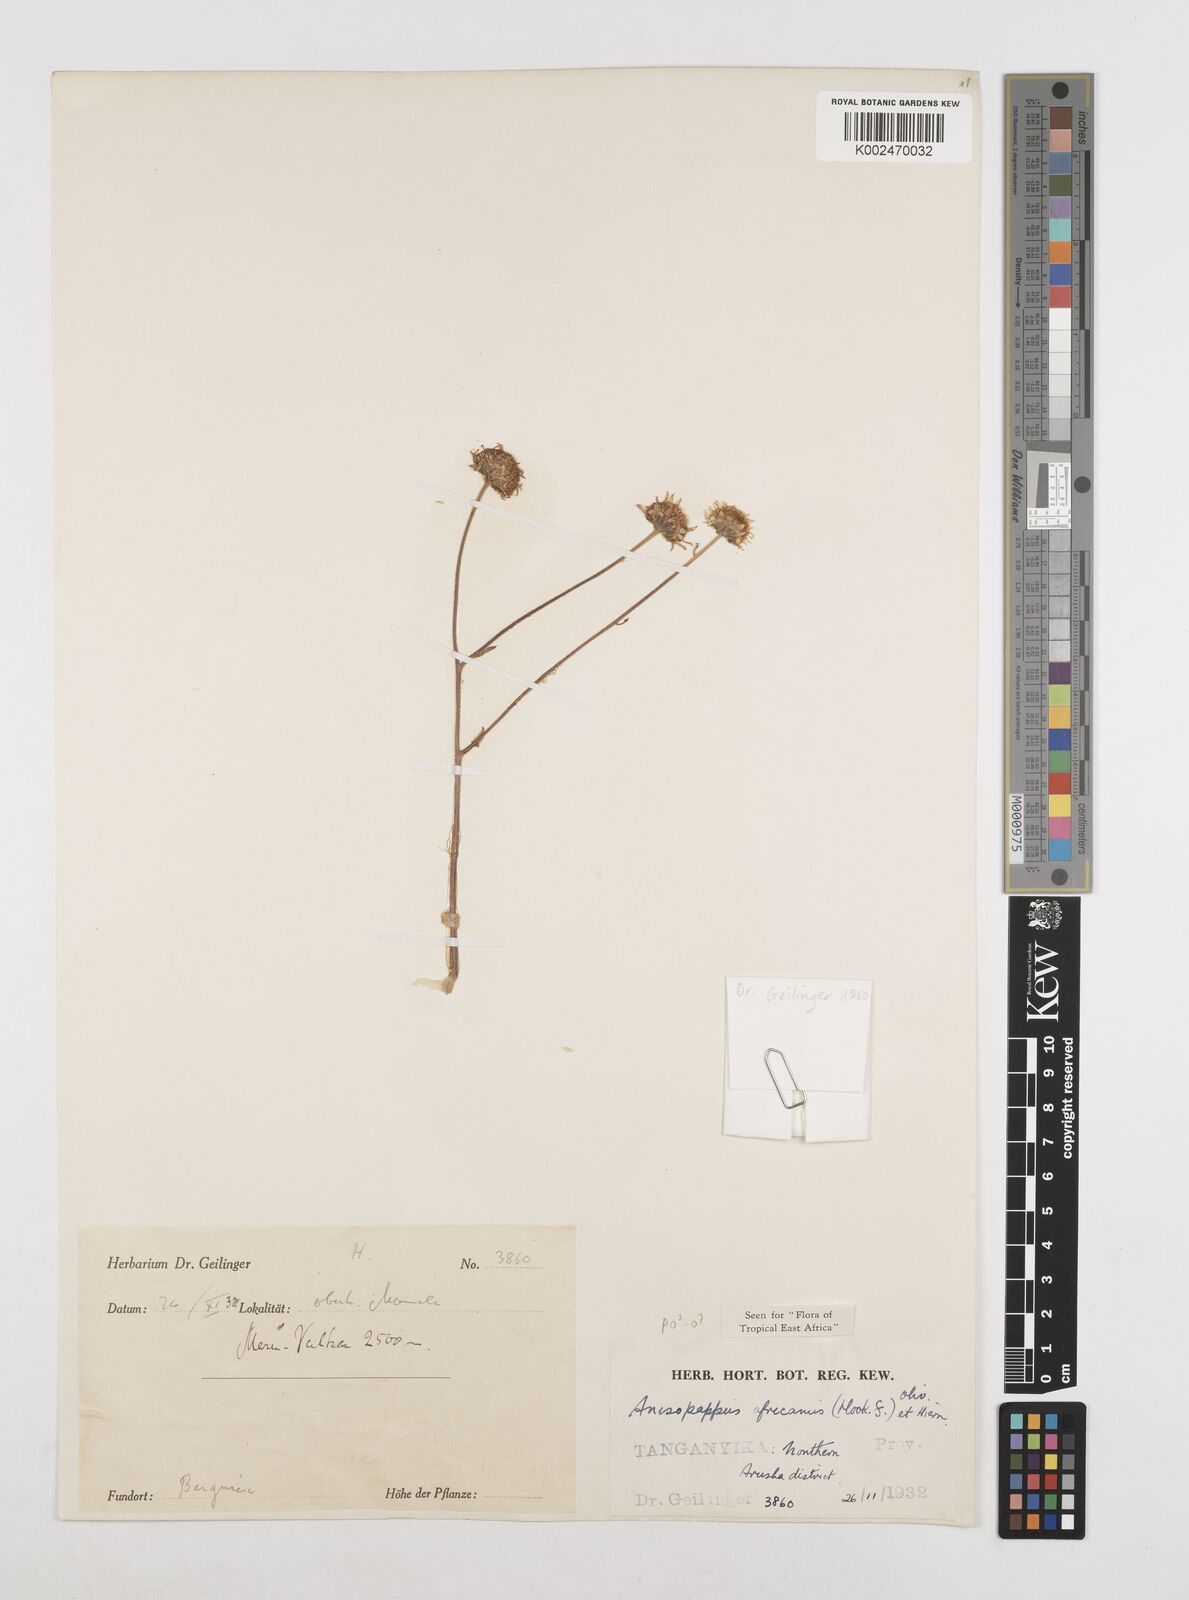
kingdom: Plantae
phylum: Tracheophyta
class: Magnoliopsida
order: Asterales
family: Asteraceae
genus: Anisopappus
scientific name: Anisopappus buchwaldii
